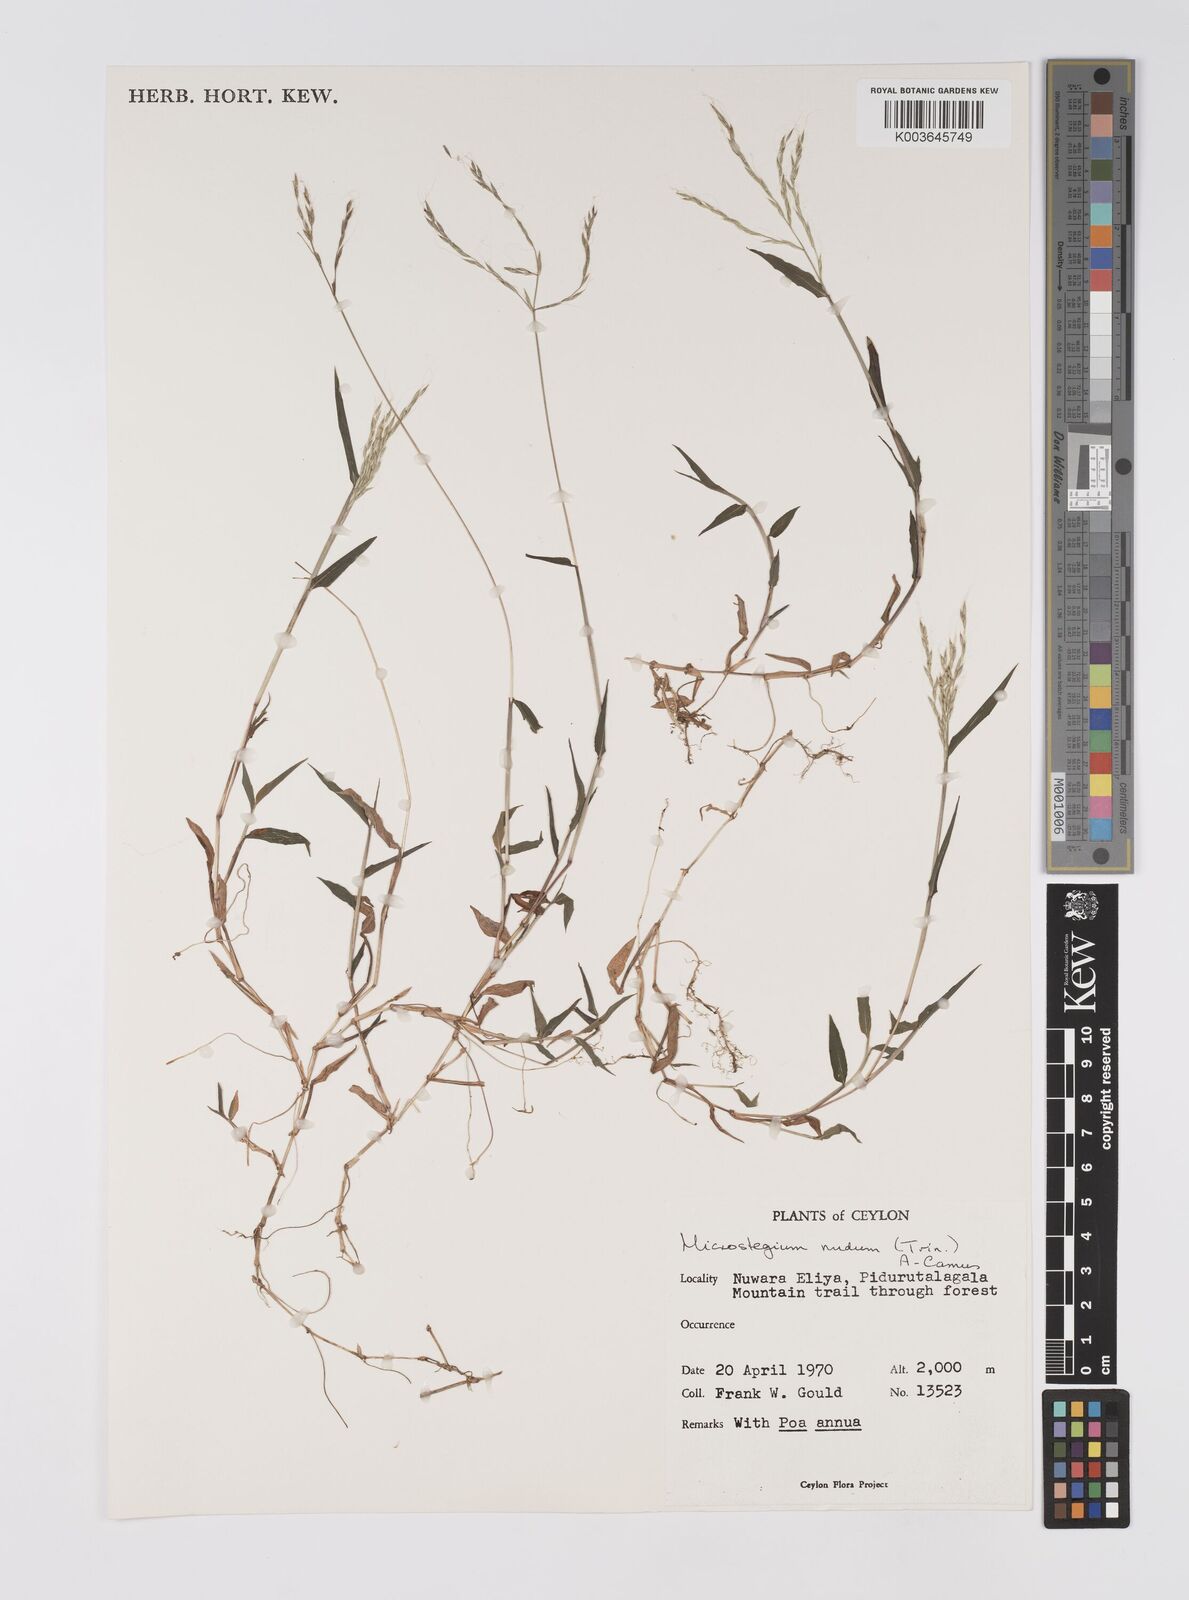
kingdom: Plantae
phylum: Tracheophyta
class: Liliopsida
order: Poales
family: Poaceae
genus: Microstegium
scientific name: Microstegium nudum
